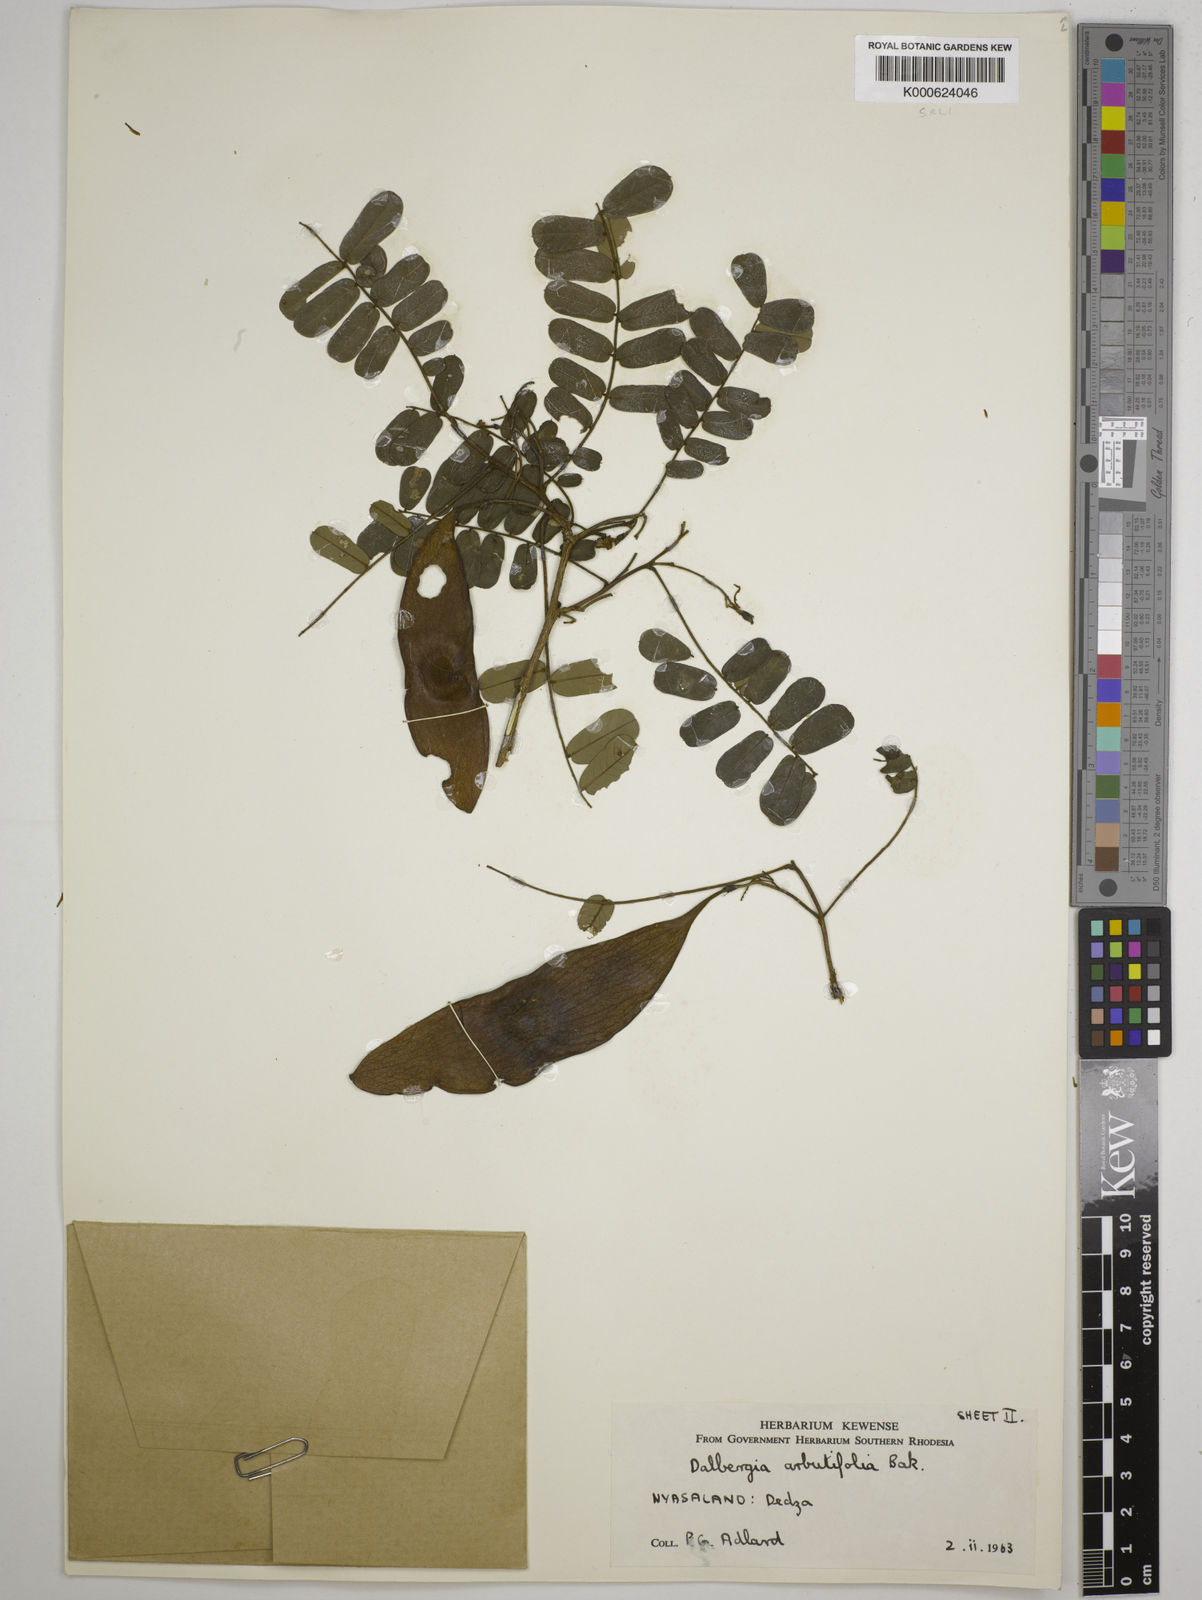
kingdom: Plantae
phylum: Tracheophyta
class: Magnoliopsida
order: Fabales
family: Fabaceae
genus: Dalbergia
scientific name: Dalbergia arbutifolia
